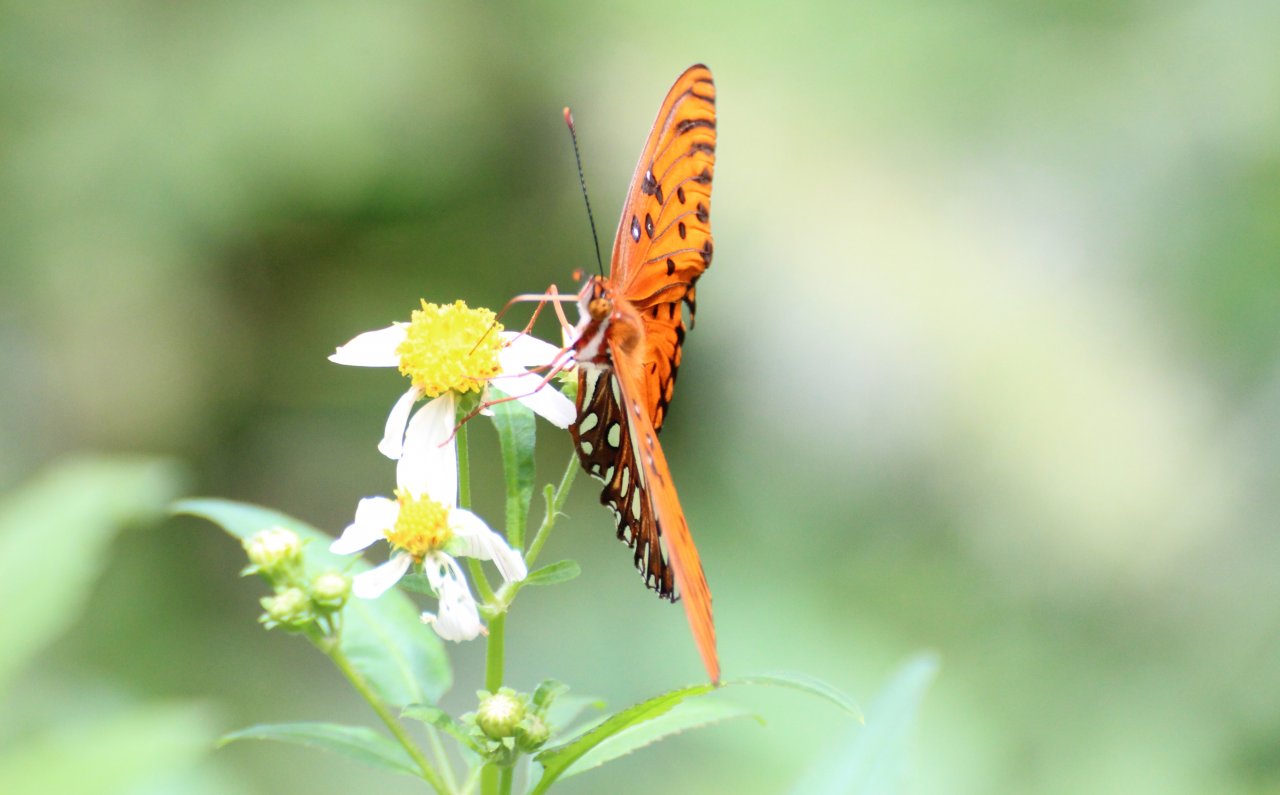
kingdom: Animalia
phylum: Arthropoda
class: Insecta
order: Lepidoptera
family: Nymphalidae
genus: Dione
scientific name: Dione vanillae
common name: Gulf Fritillary
